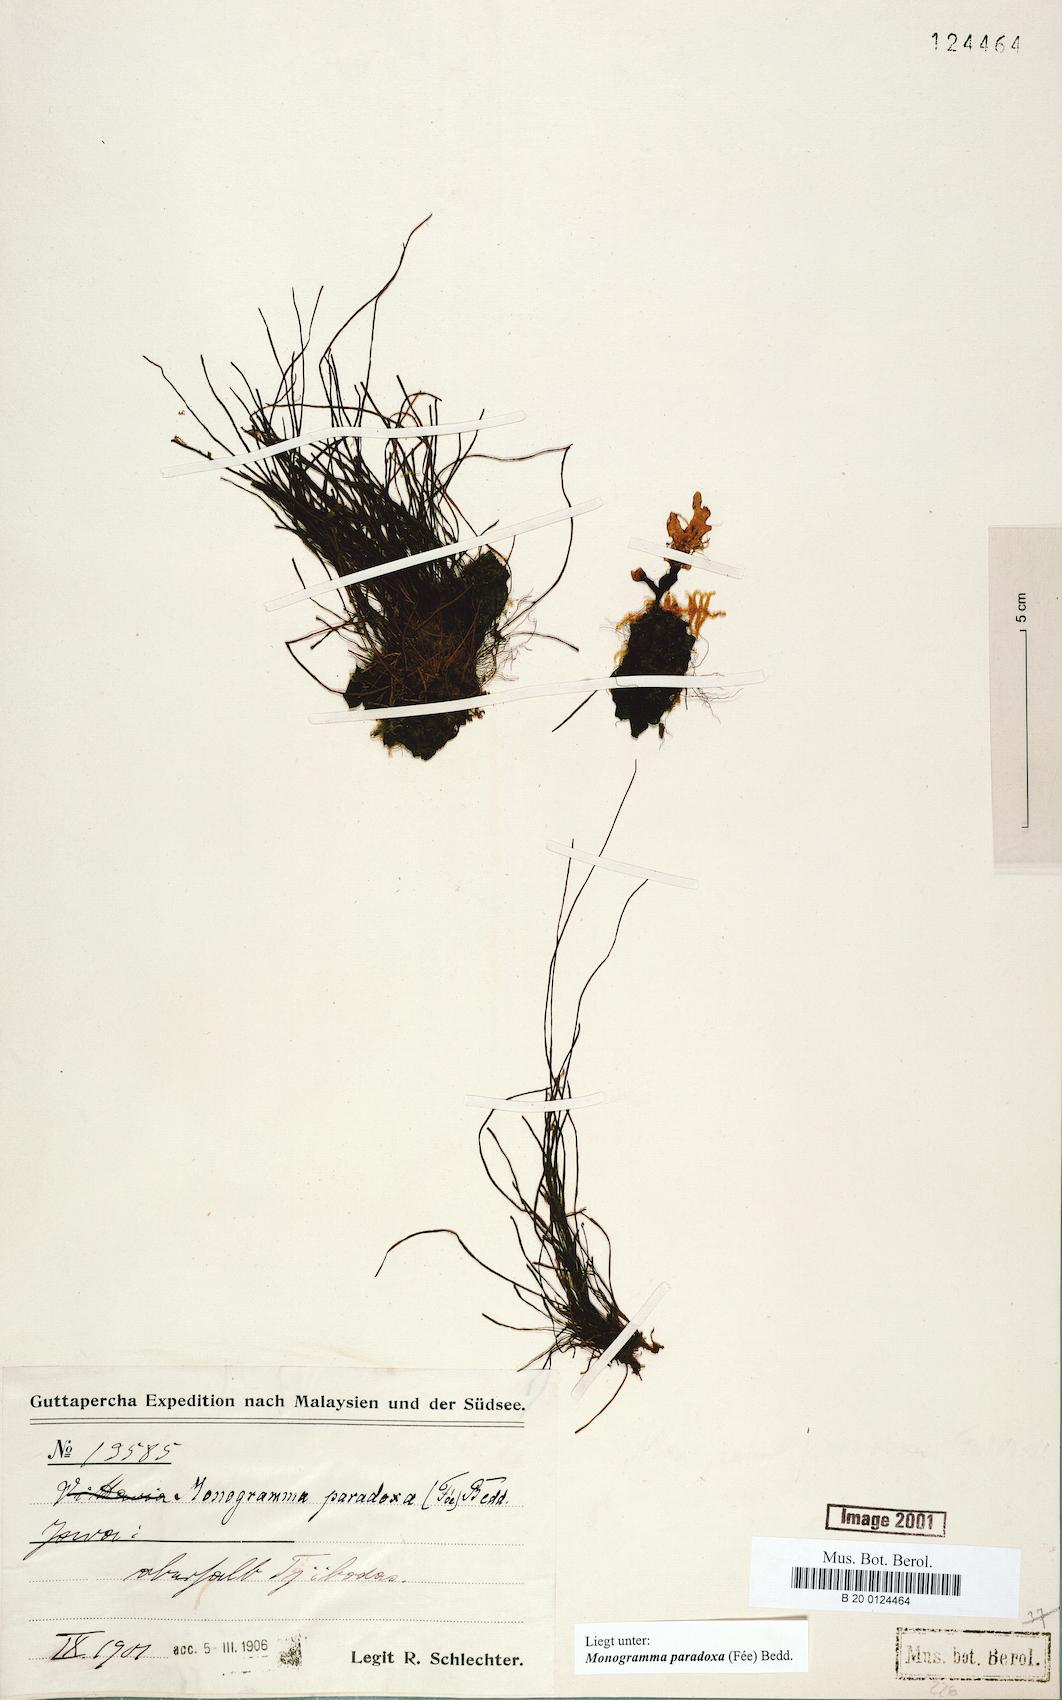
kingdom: Plantae
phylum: Tracheophyta
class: Polypodiopsida
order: Polypodiales
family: Pteridaceae
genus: Vaginularia
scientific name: Vaginularia paradoxa
